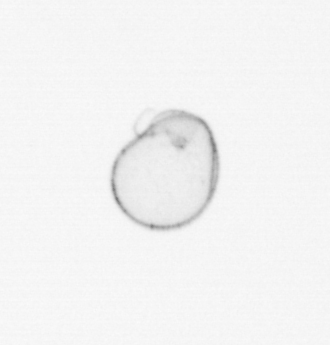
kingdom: Chromista
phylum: Myzozoa
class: Dinophyceae
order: Noctilucales
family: Noctilucaceae
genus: Noctiluca
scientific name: Noctiluca scintillans
